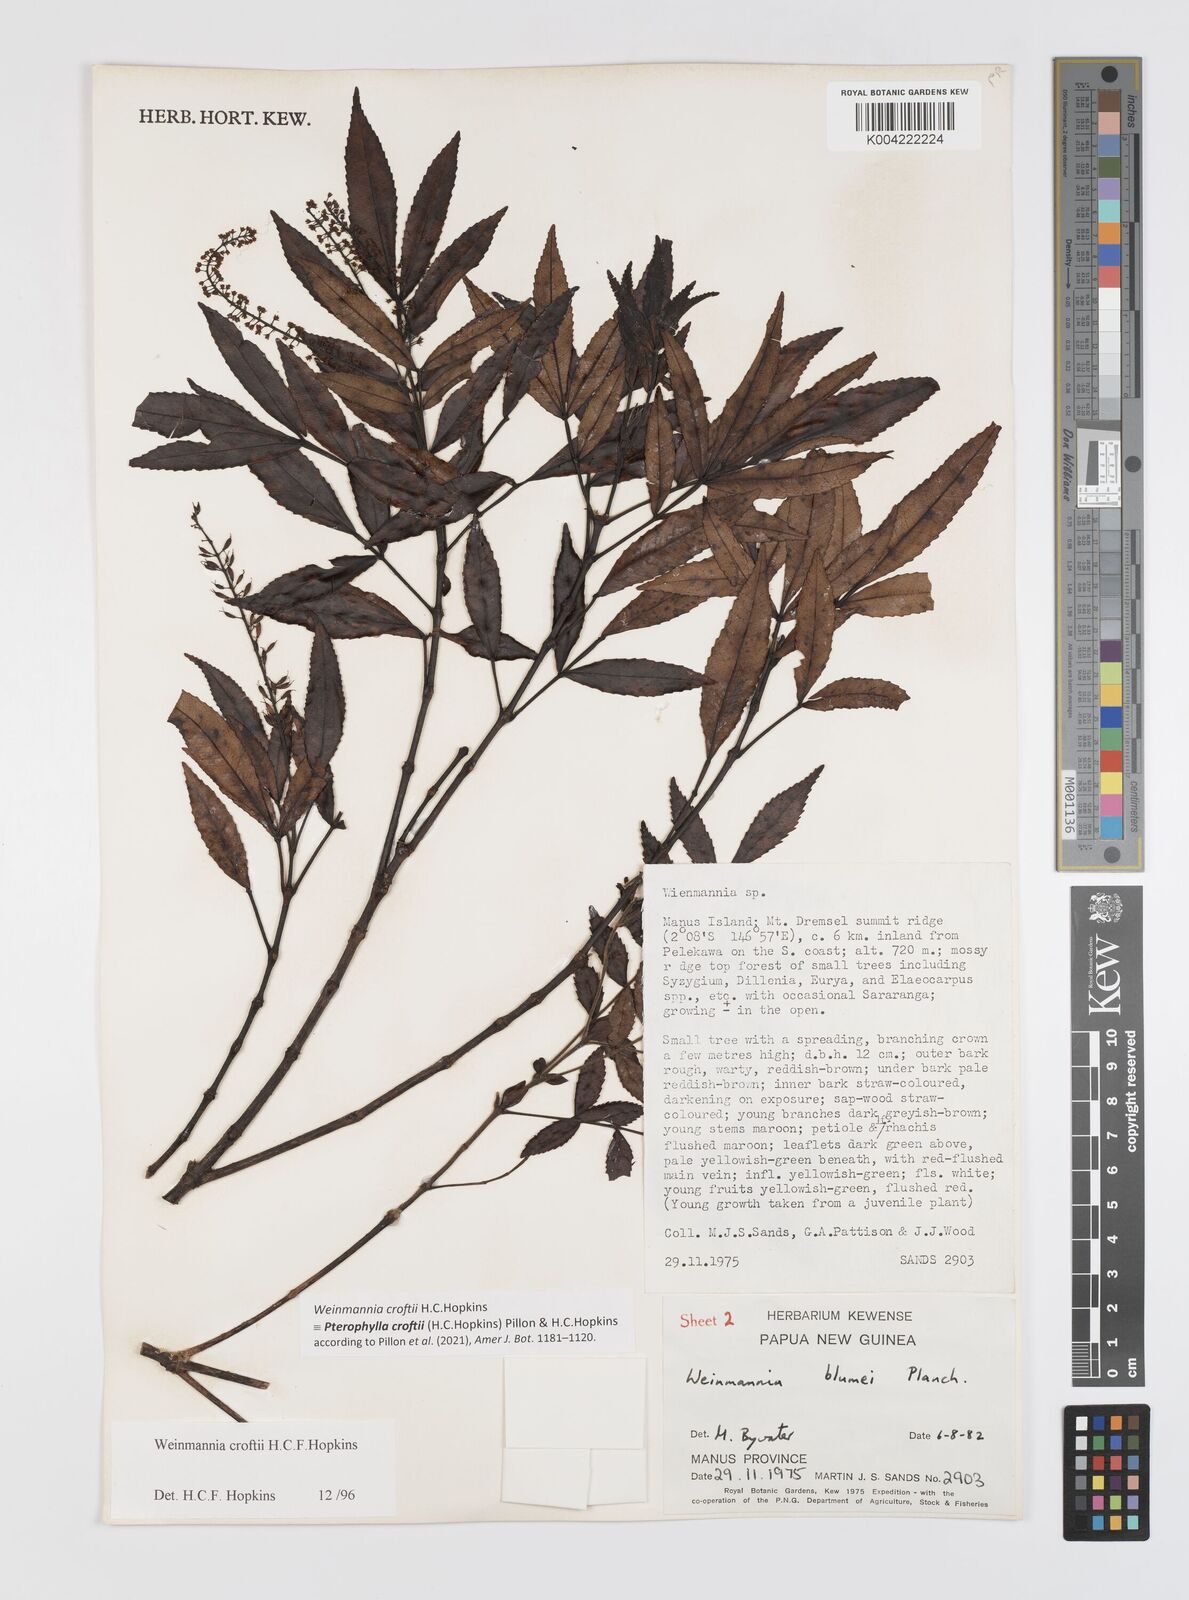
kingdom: Plantae
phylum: Tracheophyta
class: Magnoliopsida
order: Oxalidales
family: Cunoniaceae
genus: Pterophylla
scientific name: Pterophylla croftii
